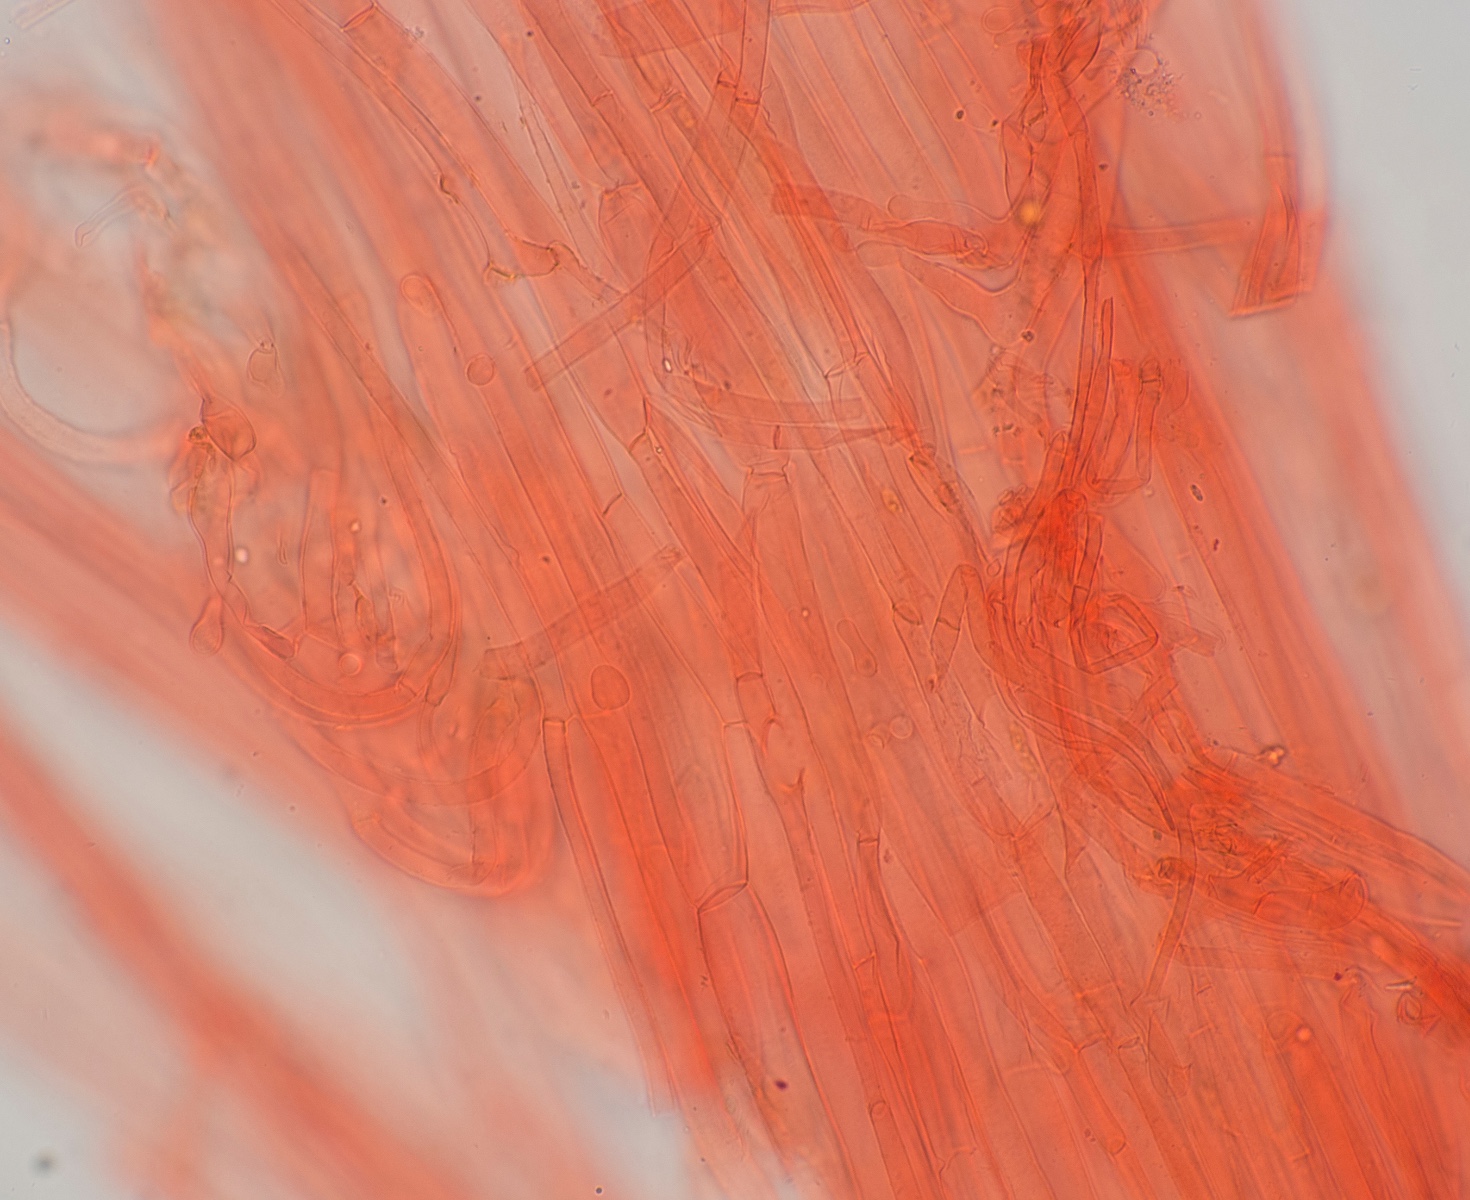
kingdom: Fungi
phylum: Basidiomycota
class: Agaricomycetes
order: Agaricales
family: Hymenogastraceae
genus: Galerina
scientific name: Galerina graminea
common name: plæne-hjelmhat
